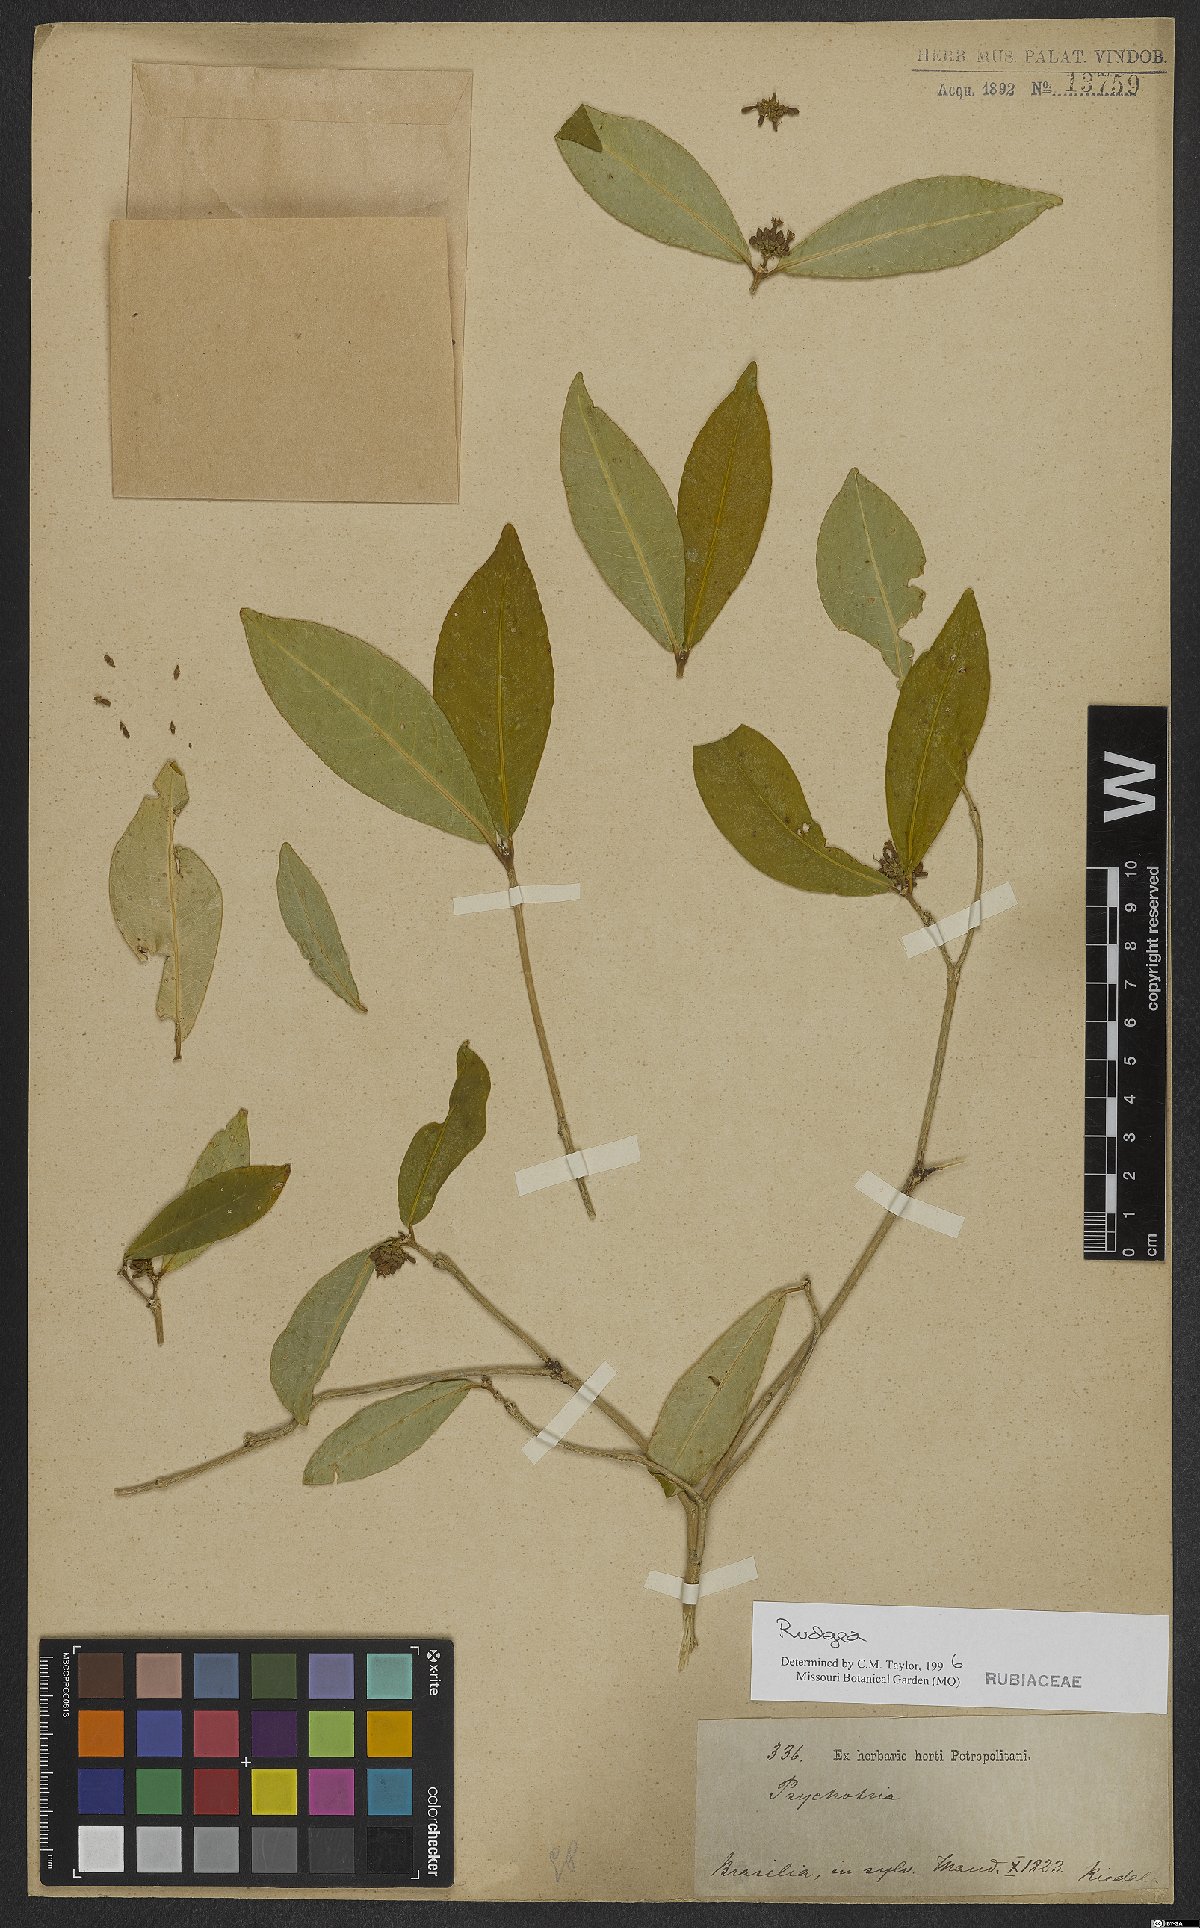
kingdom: Plantae
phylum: Tracheophyta
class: Magnoliopsida
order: Gentianales
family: Rubiaceae
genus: Rudgea
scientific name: Rudgea
